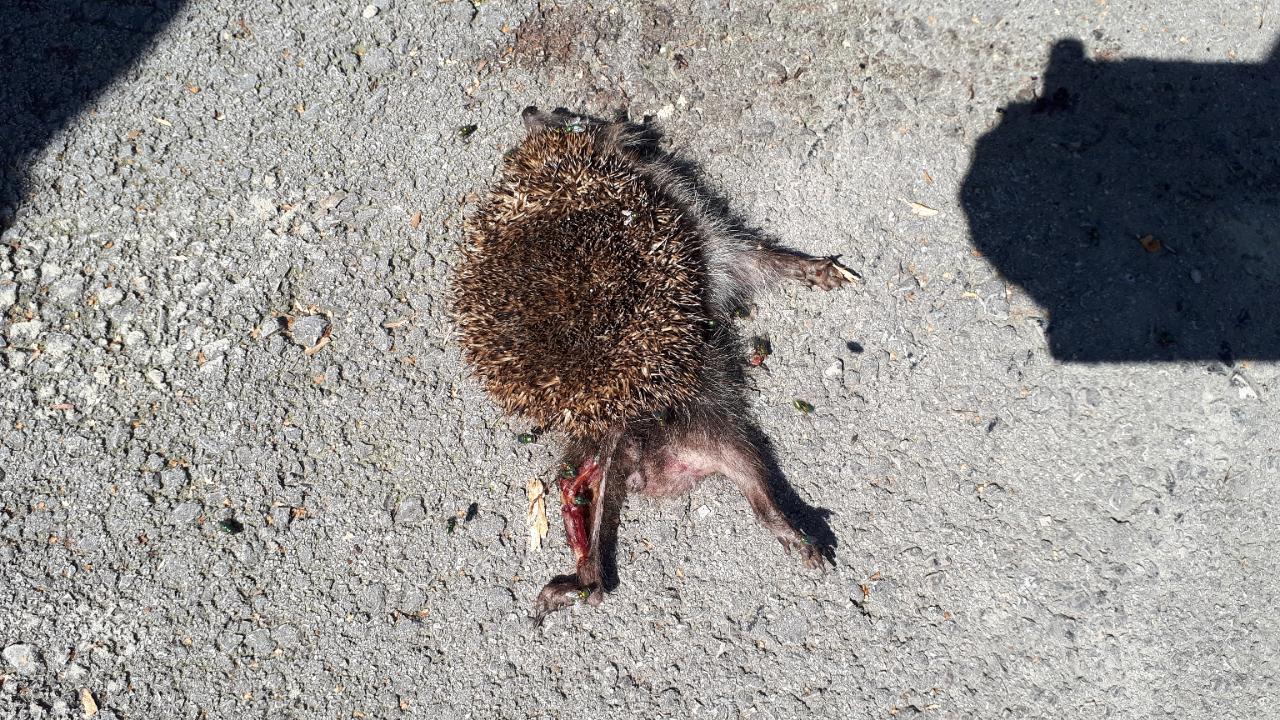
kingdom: Animalia
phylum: Chordata
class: Mammalia
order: Erinaceomorpha
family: Erinaceidae
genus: Erinaceus
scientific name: Erinaceus
